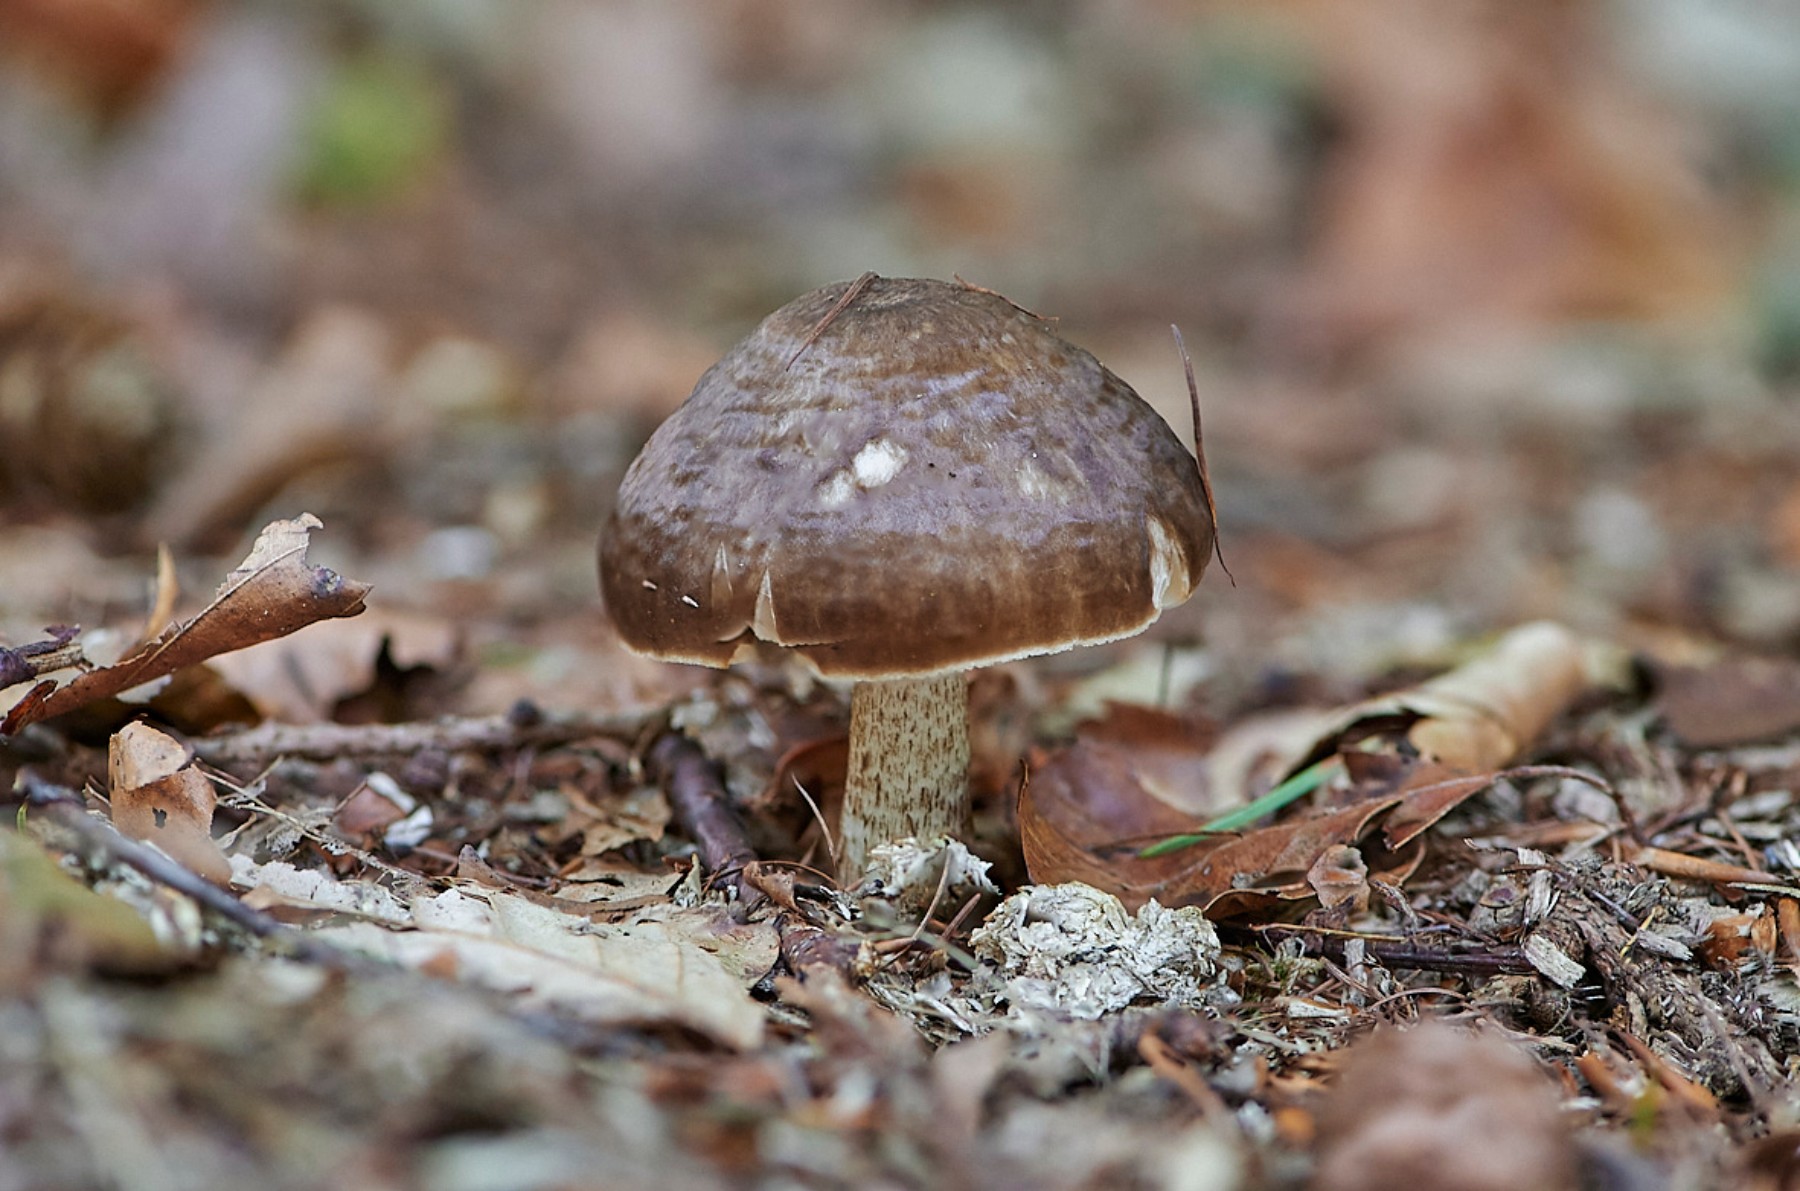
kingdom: Fungi
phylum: Basidiomycota
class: Agaricomycetes
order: Agaricales
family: Pluteaceae
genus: Pluteus
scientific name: Pluteus cervinus
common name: sodfarvet skærmhat
